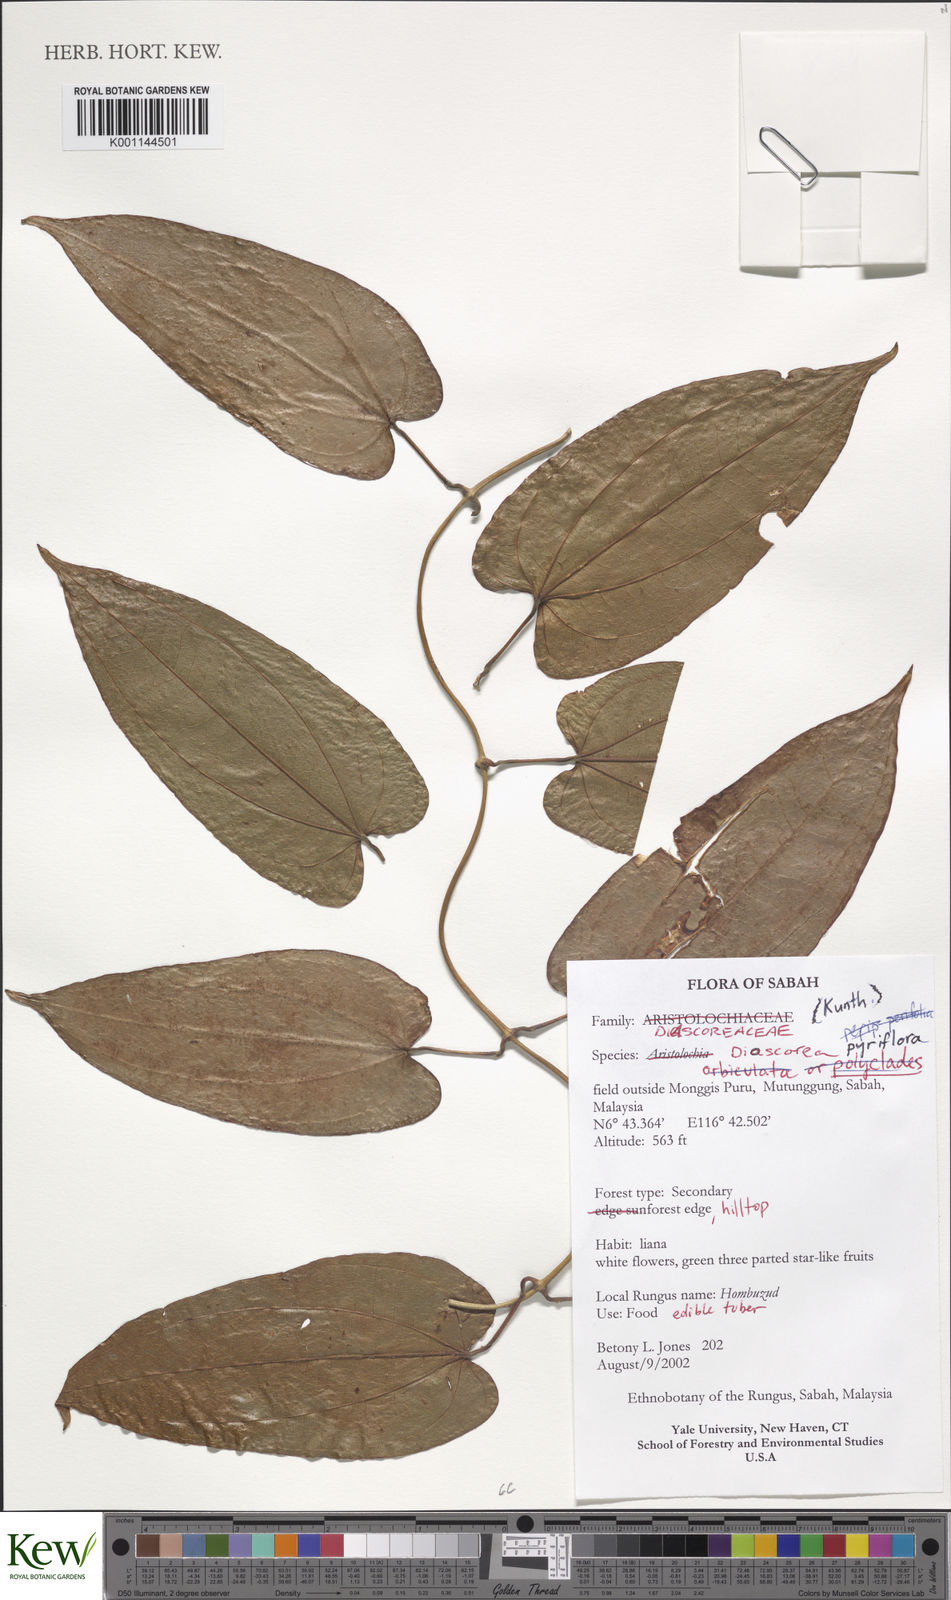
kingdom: Plantae
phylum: Tracheophyta
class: Liliopsida
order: Dioscoreales
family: Dioscoreaceae
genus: Dioscorea
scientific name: Dioscorea pyrifolia
